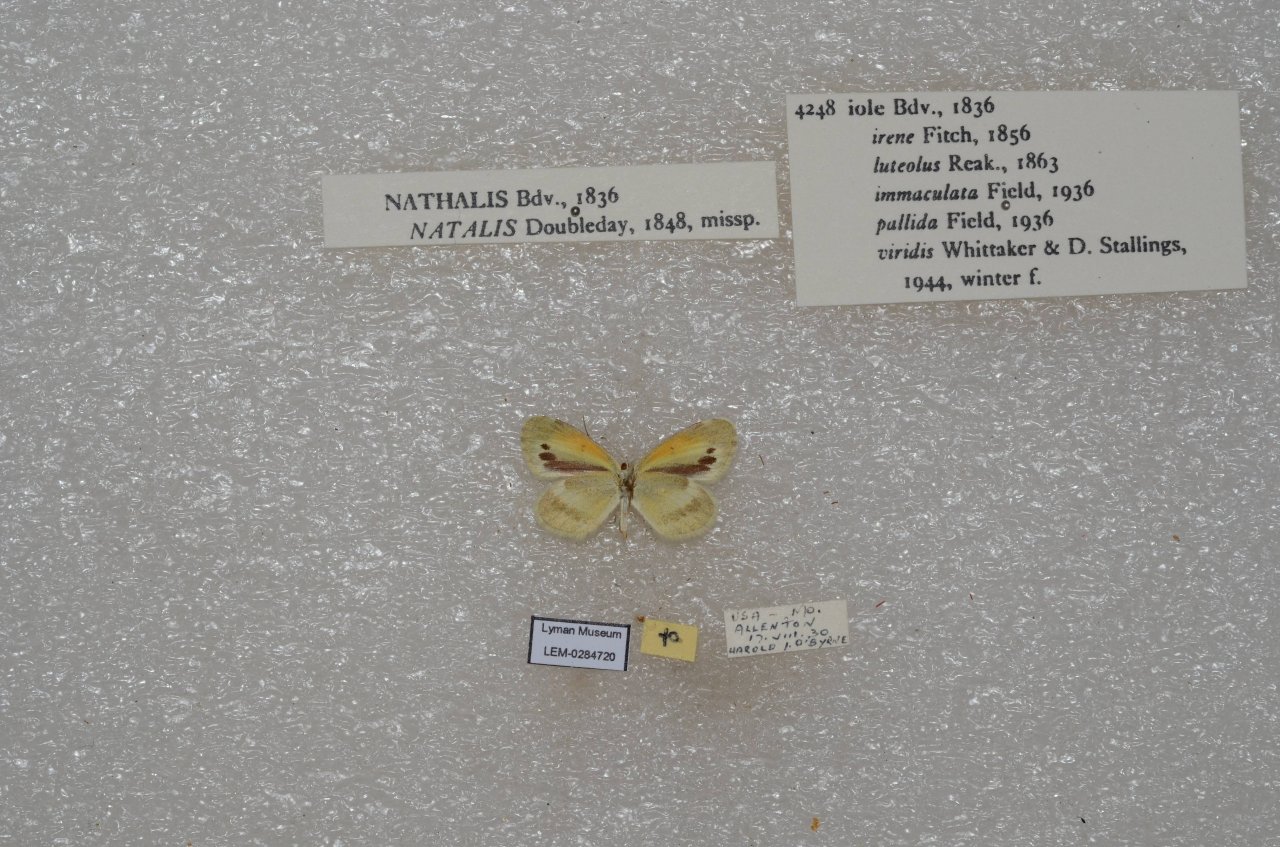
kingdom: Animalia
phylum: Arthropoda
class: Insecta
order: Lepidoptera
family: Pieridae
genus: Nathalis
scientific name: Nathalis iole
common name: Dainty Sulphur
